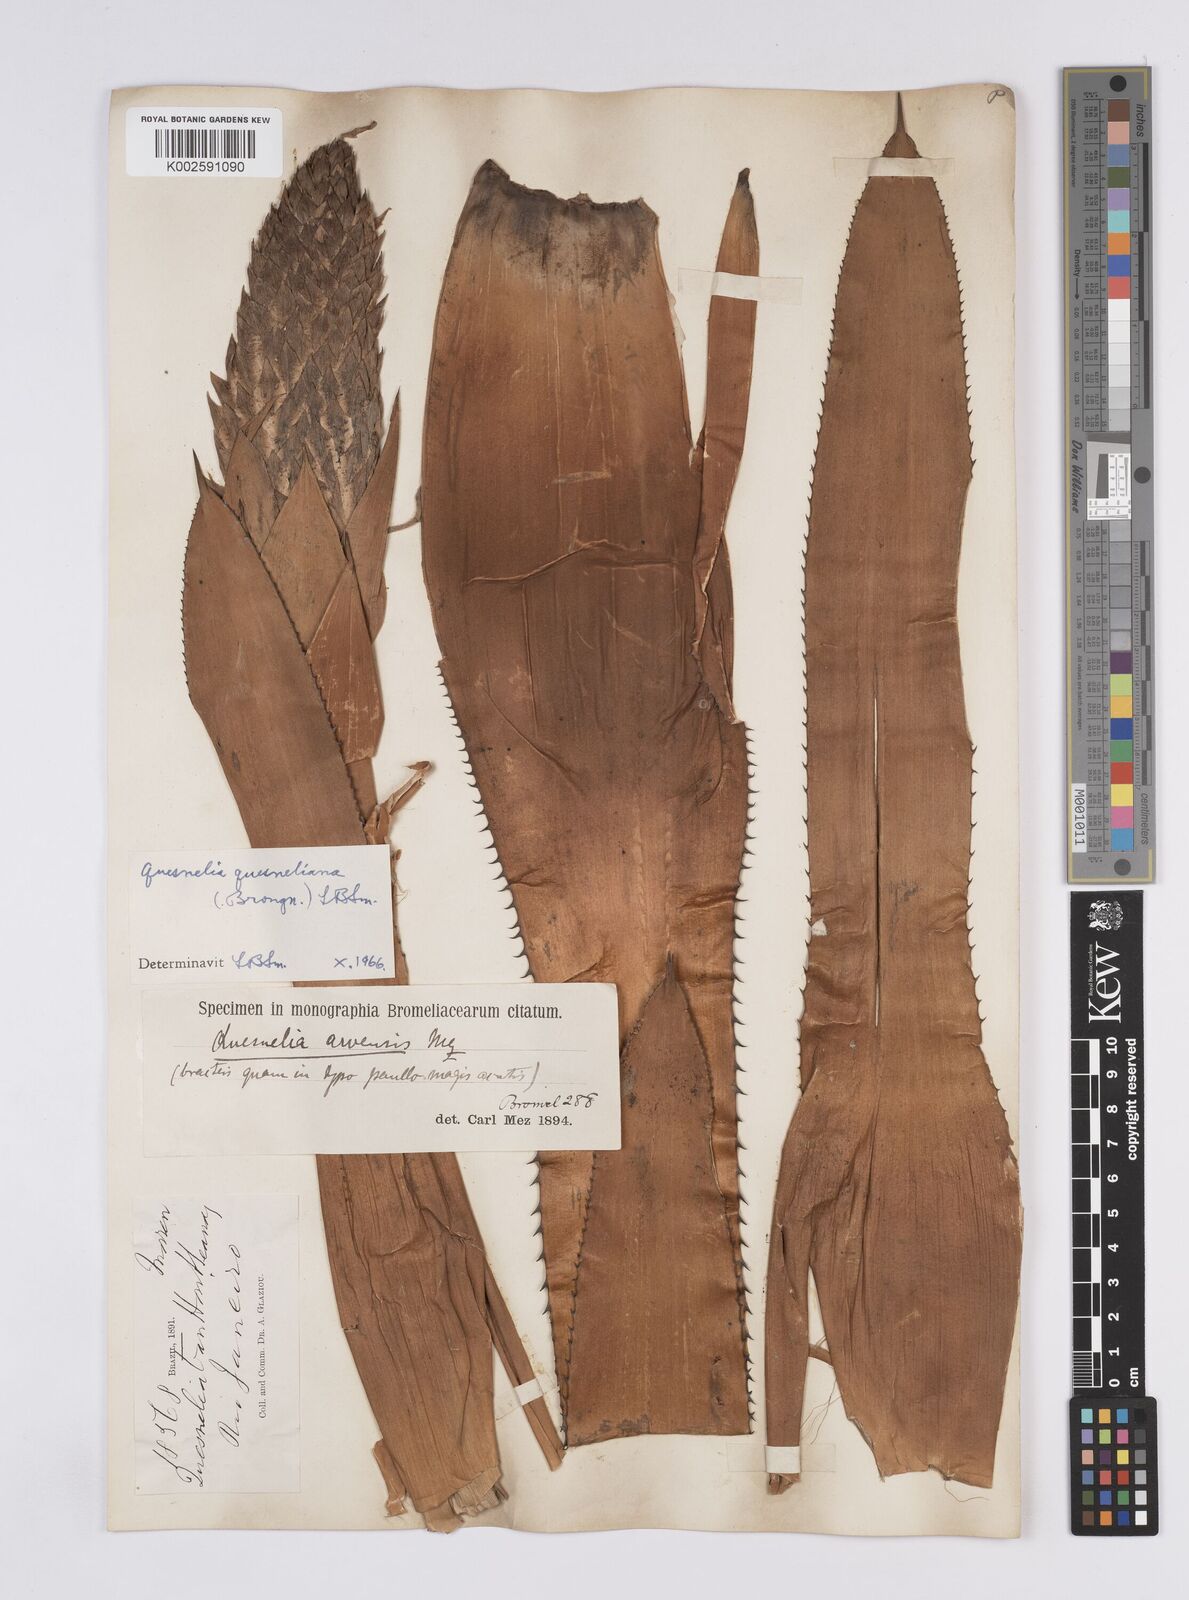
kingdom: Plantae
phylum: Tracheophyta
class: Liliopsida
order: Poales
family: Bromeliaceae
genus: Quesnelia
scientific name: Quesnelia quesneliana
